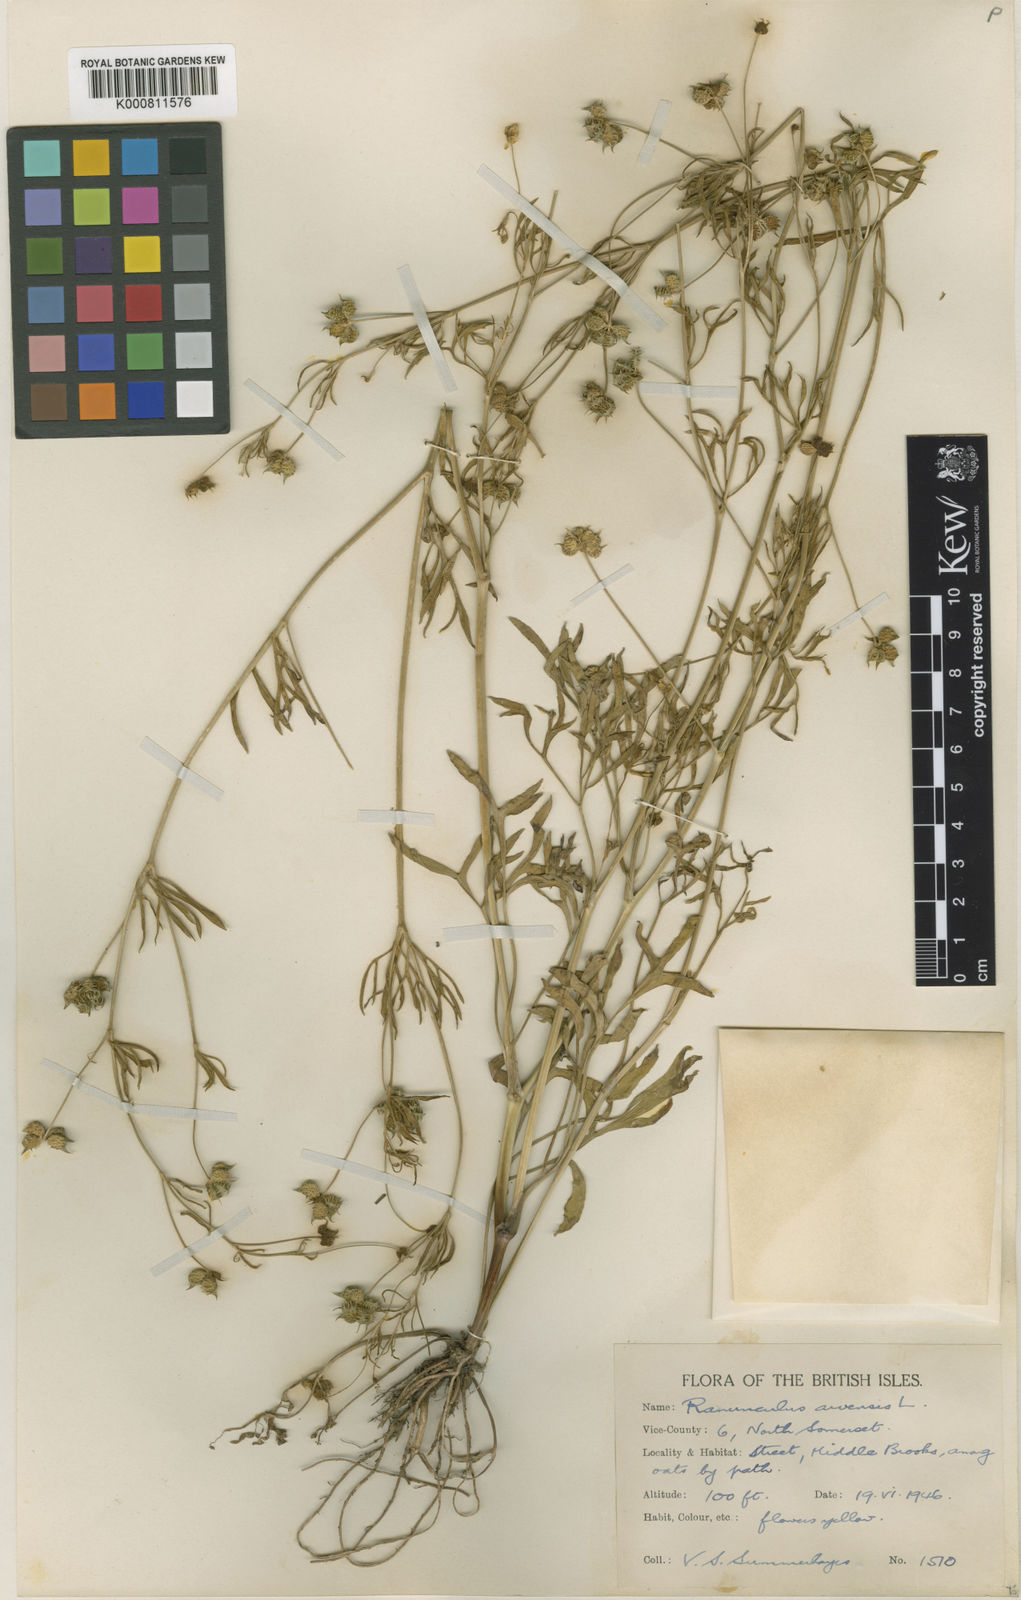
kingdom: Plantae
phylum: Tracheophyta
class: Magnoliopsida
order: Ranunculales
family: Ranunculaceae
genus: Ranunculus
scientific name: Ranunculus arvensis
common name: Corn buttercup
